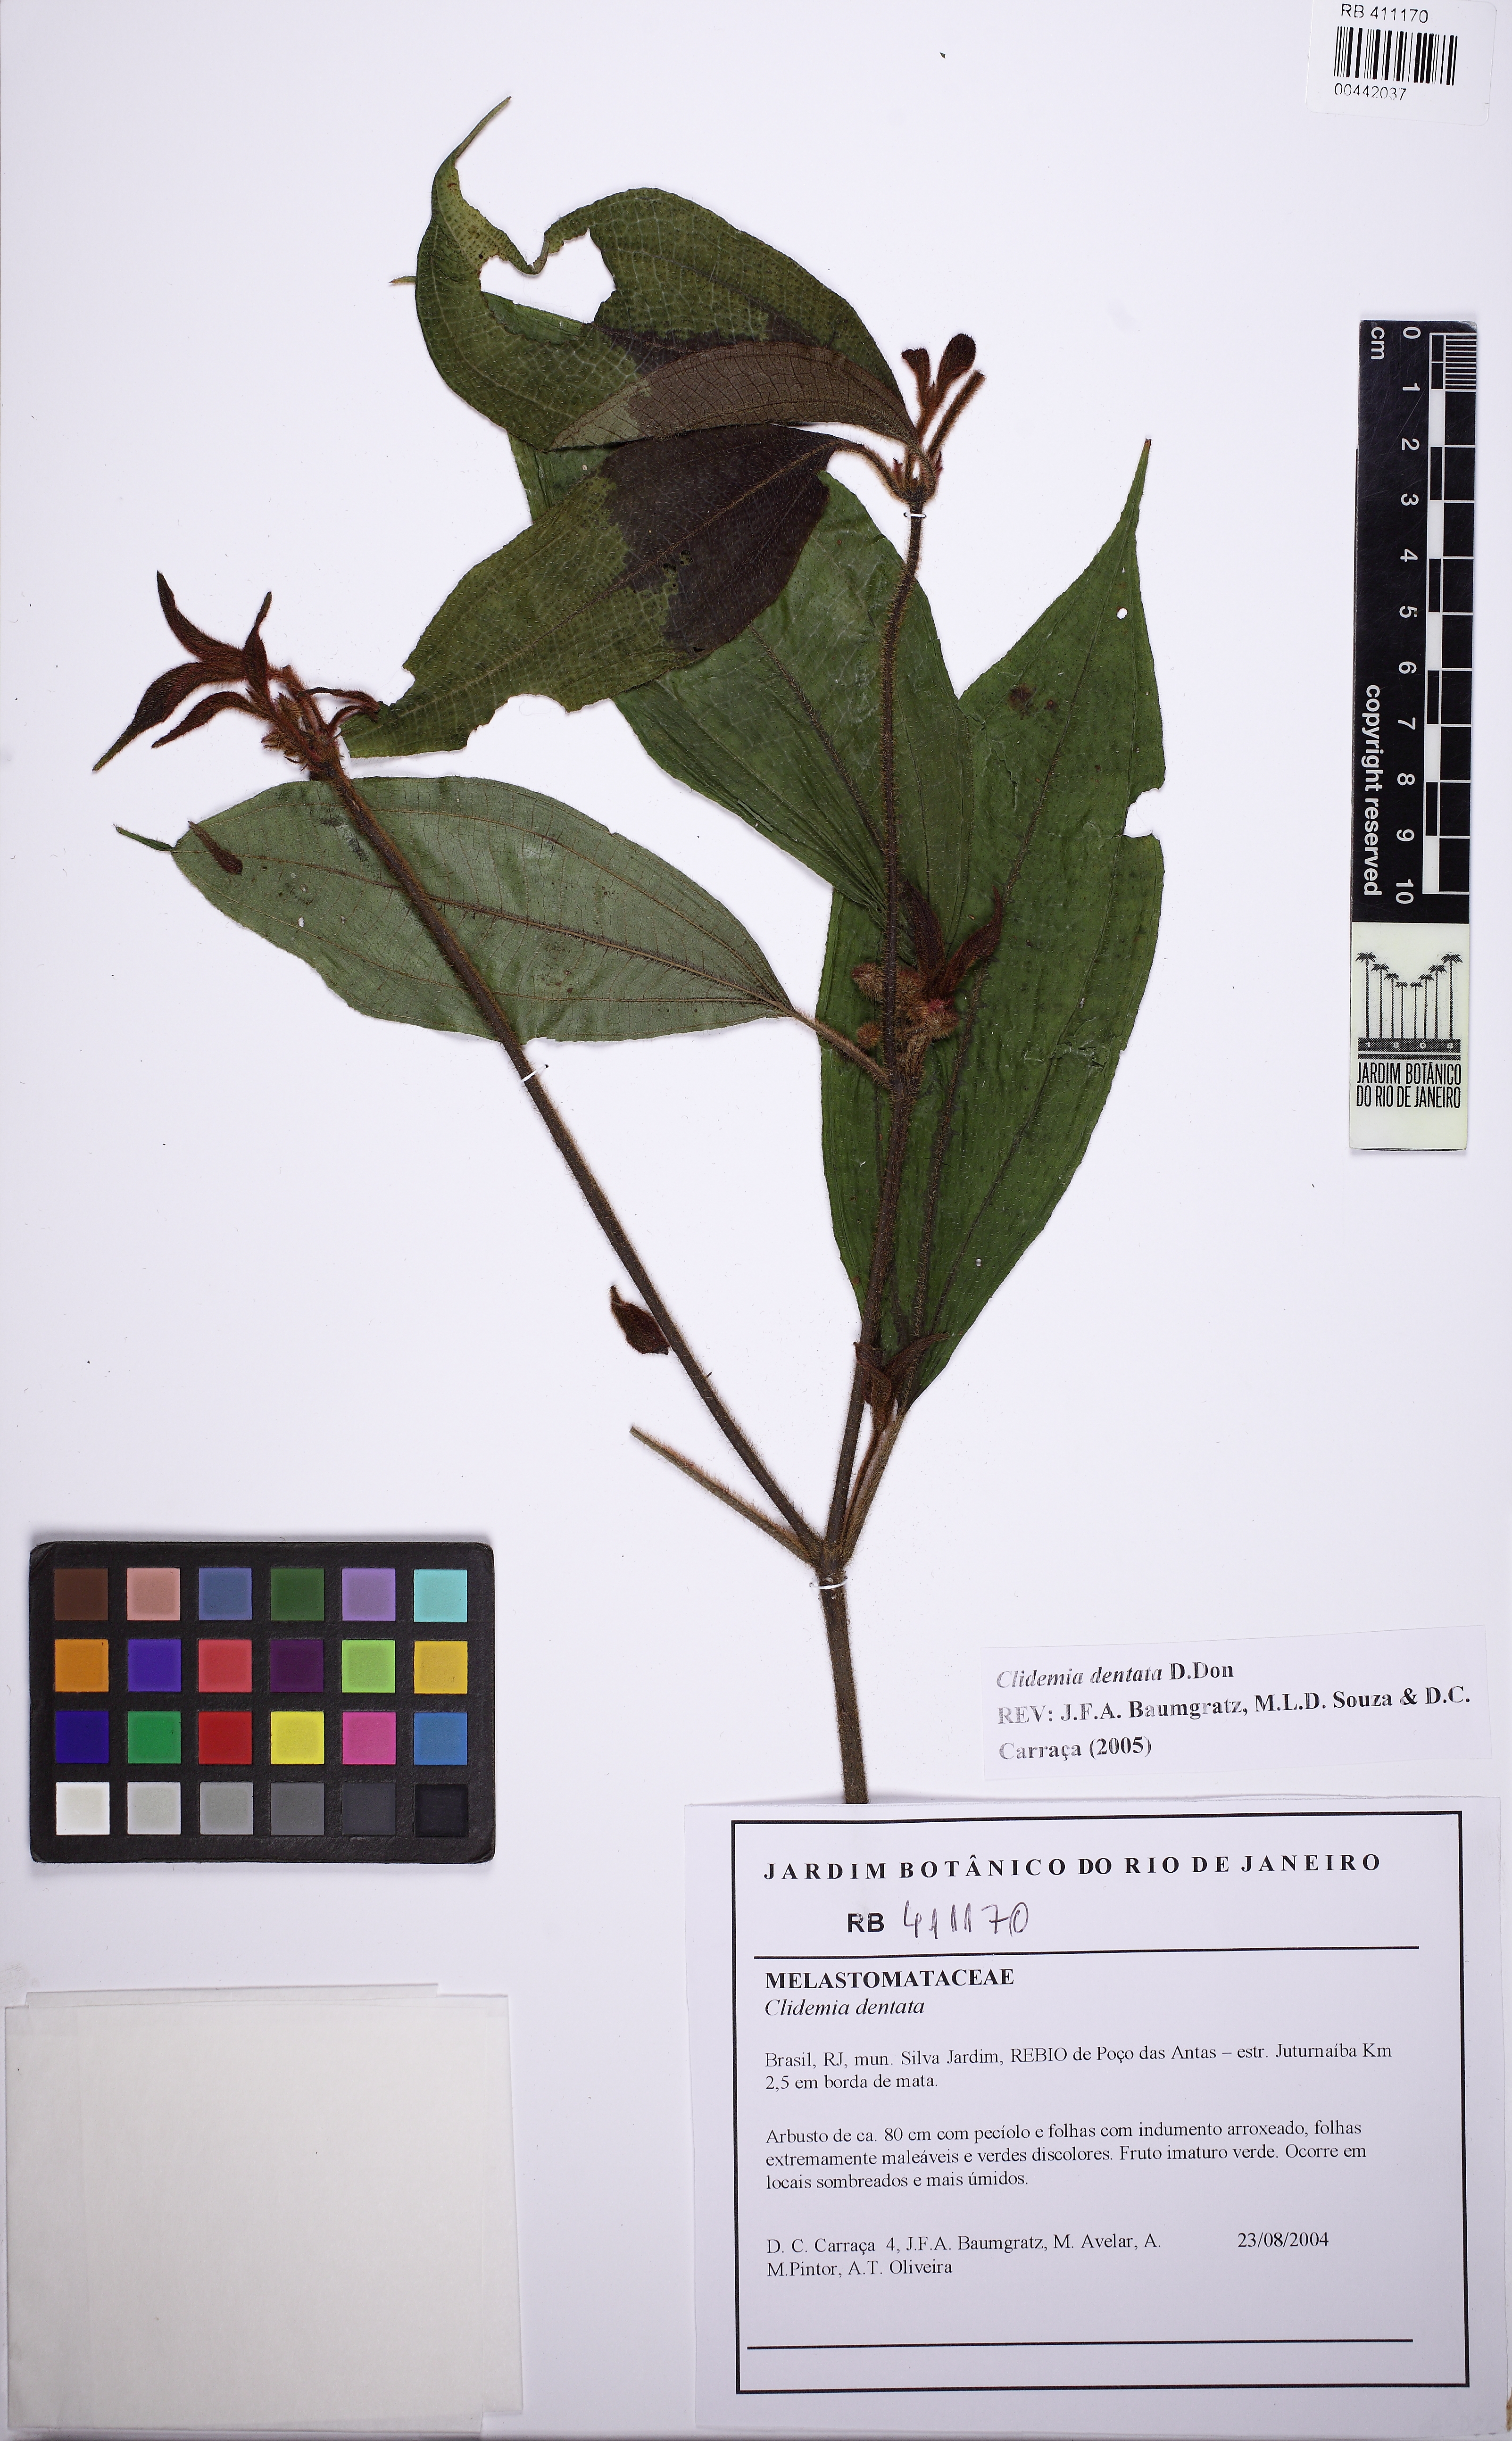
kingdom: Plantae
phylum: Tracheophyta
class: Magnoliopsida
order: Myrtales
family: Melastomataceae
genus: Miconia
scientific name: Miconia biserrata
